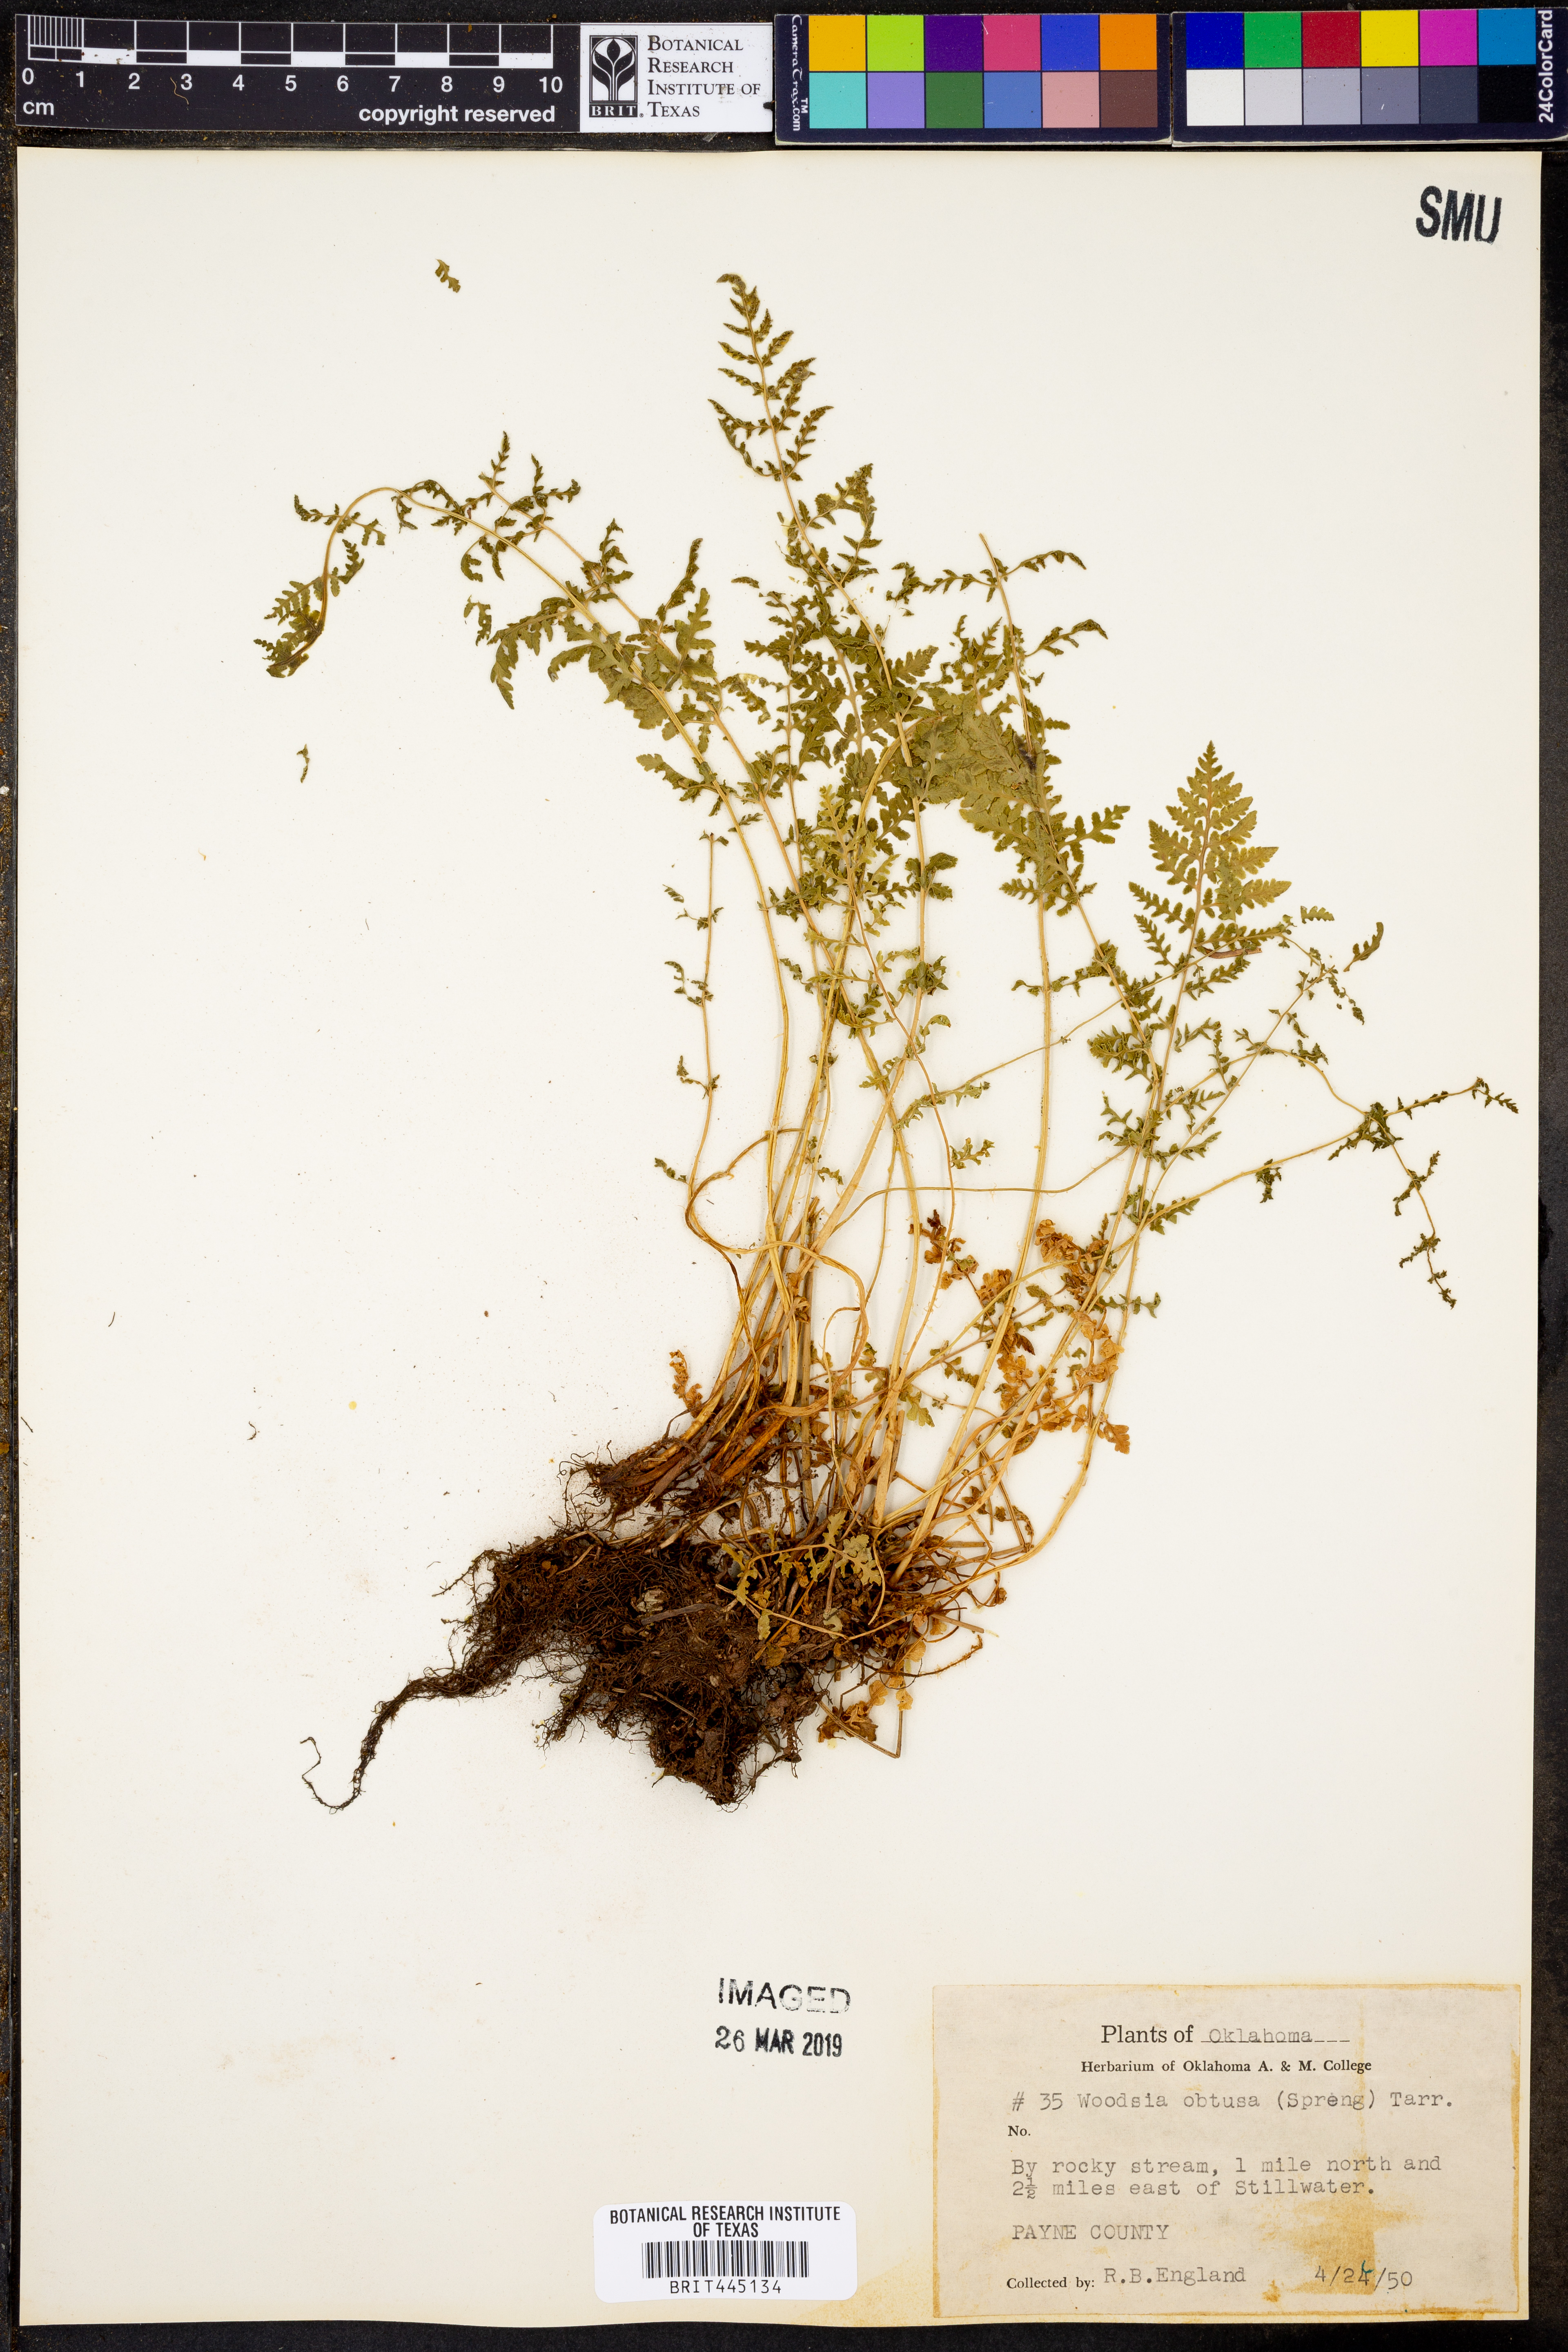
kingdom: Plantae
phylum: Tracheophyta
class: Polypodiopsida
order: Polypodiales
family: Woodsiaceae
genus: Physematium
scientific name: Physematium obtusum
